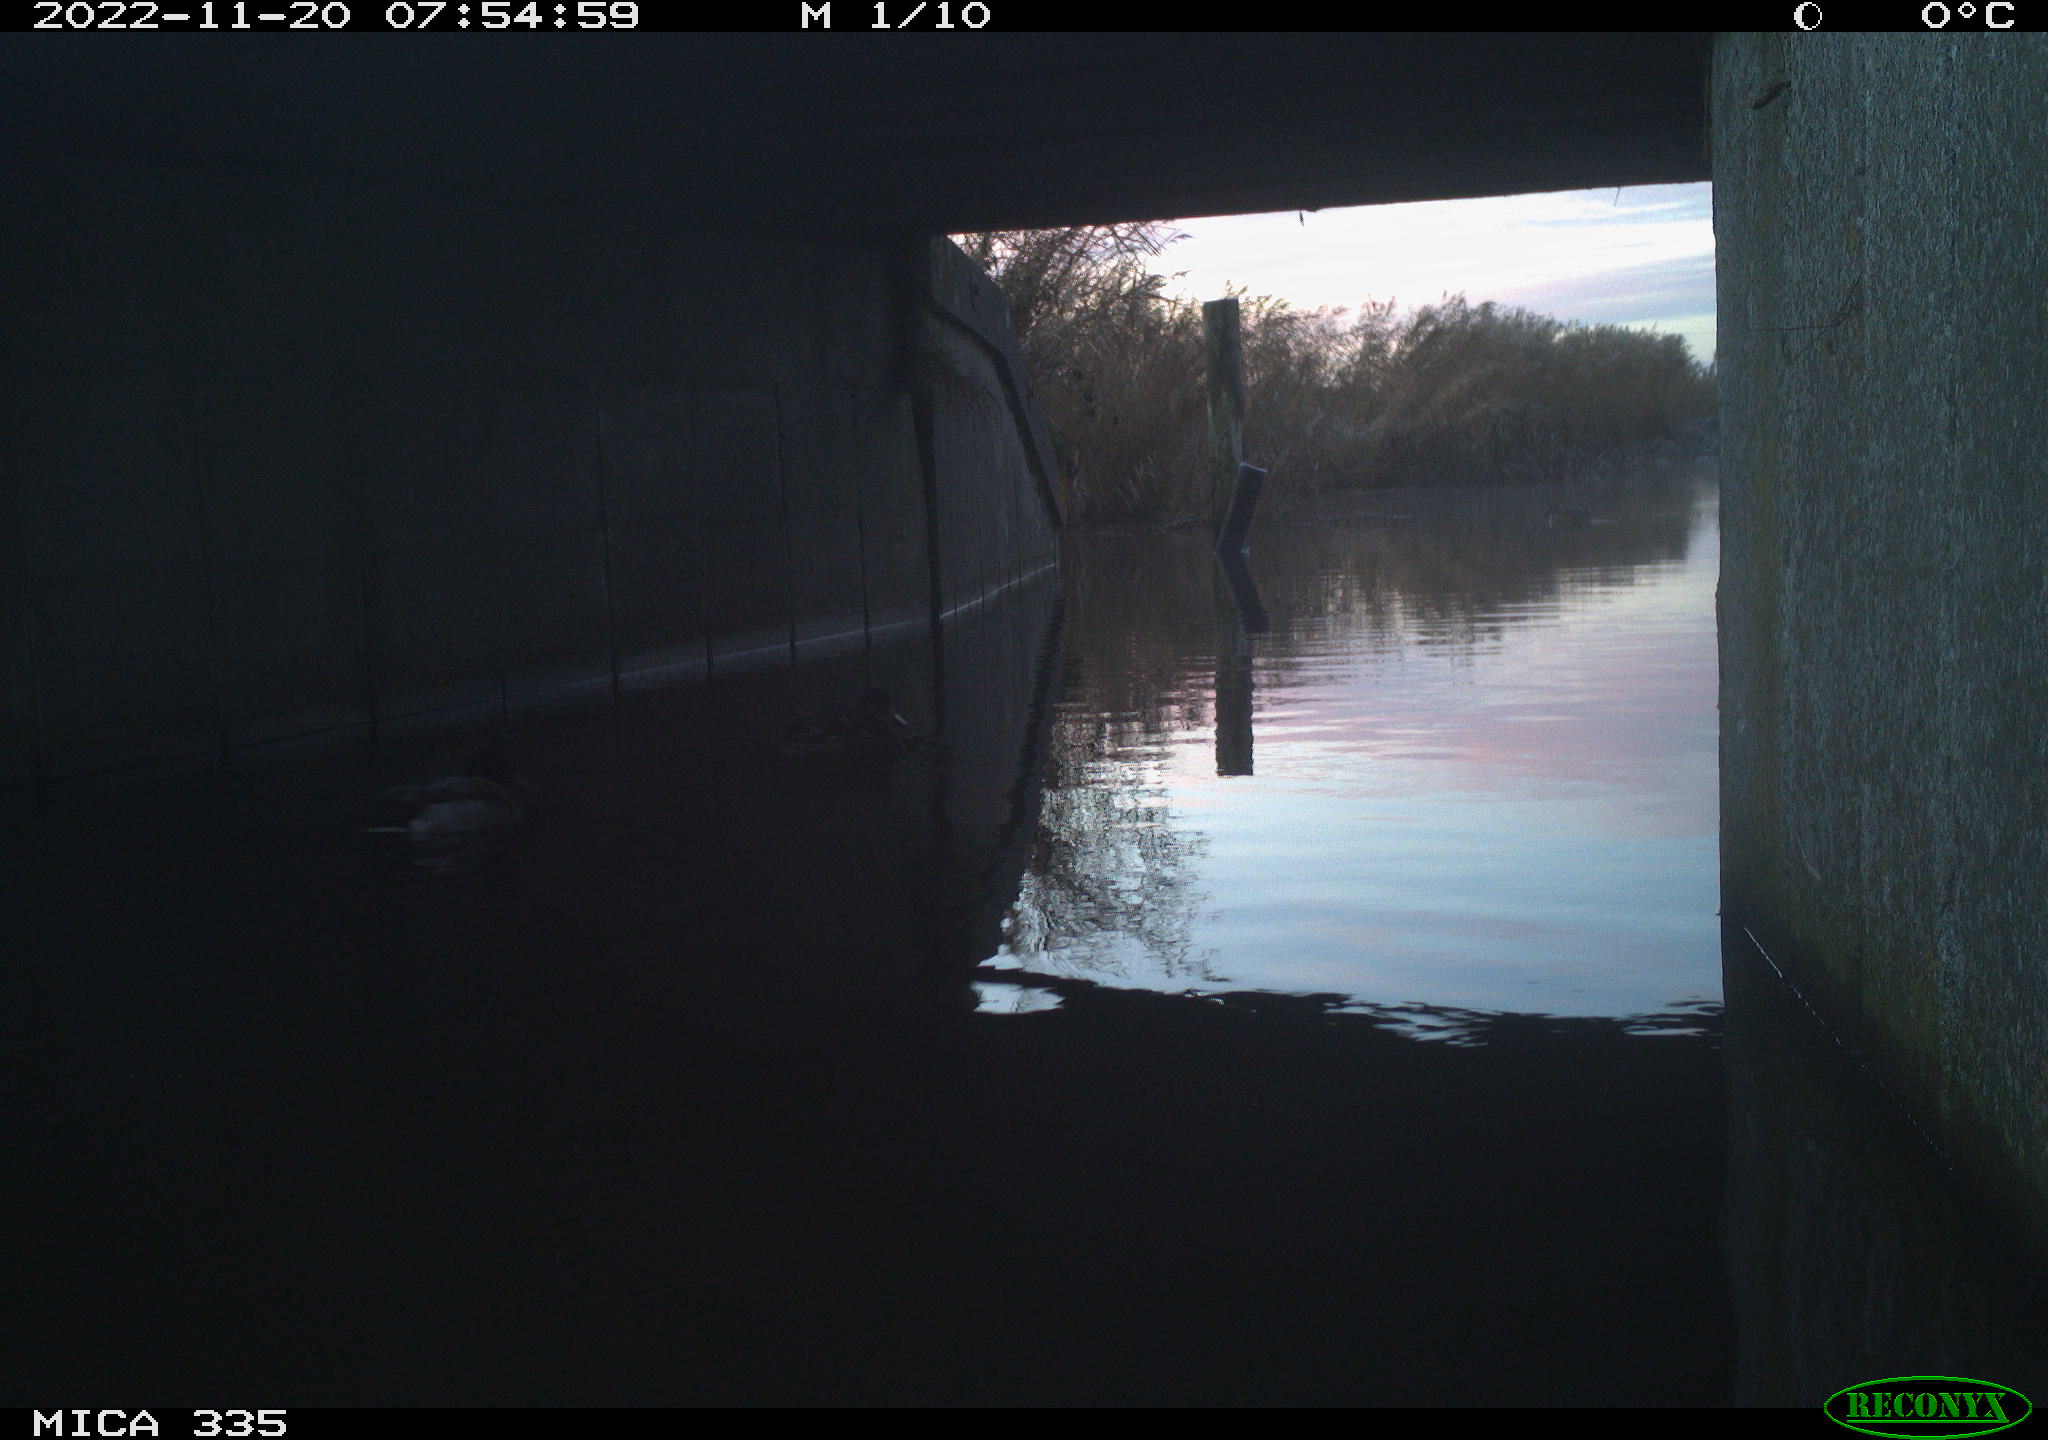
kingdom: Animalia
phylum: Chordata
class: Aves
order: Anseriformes
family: Anatidae
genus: Anas
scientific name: Anas platyrhynchos
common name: Mallard
